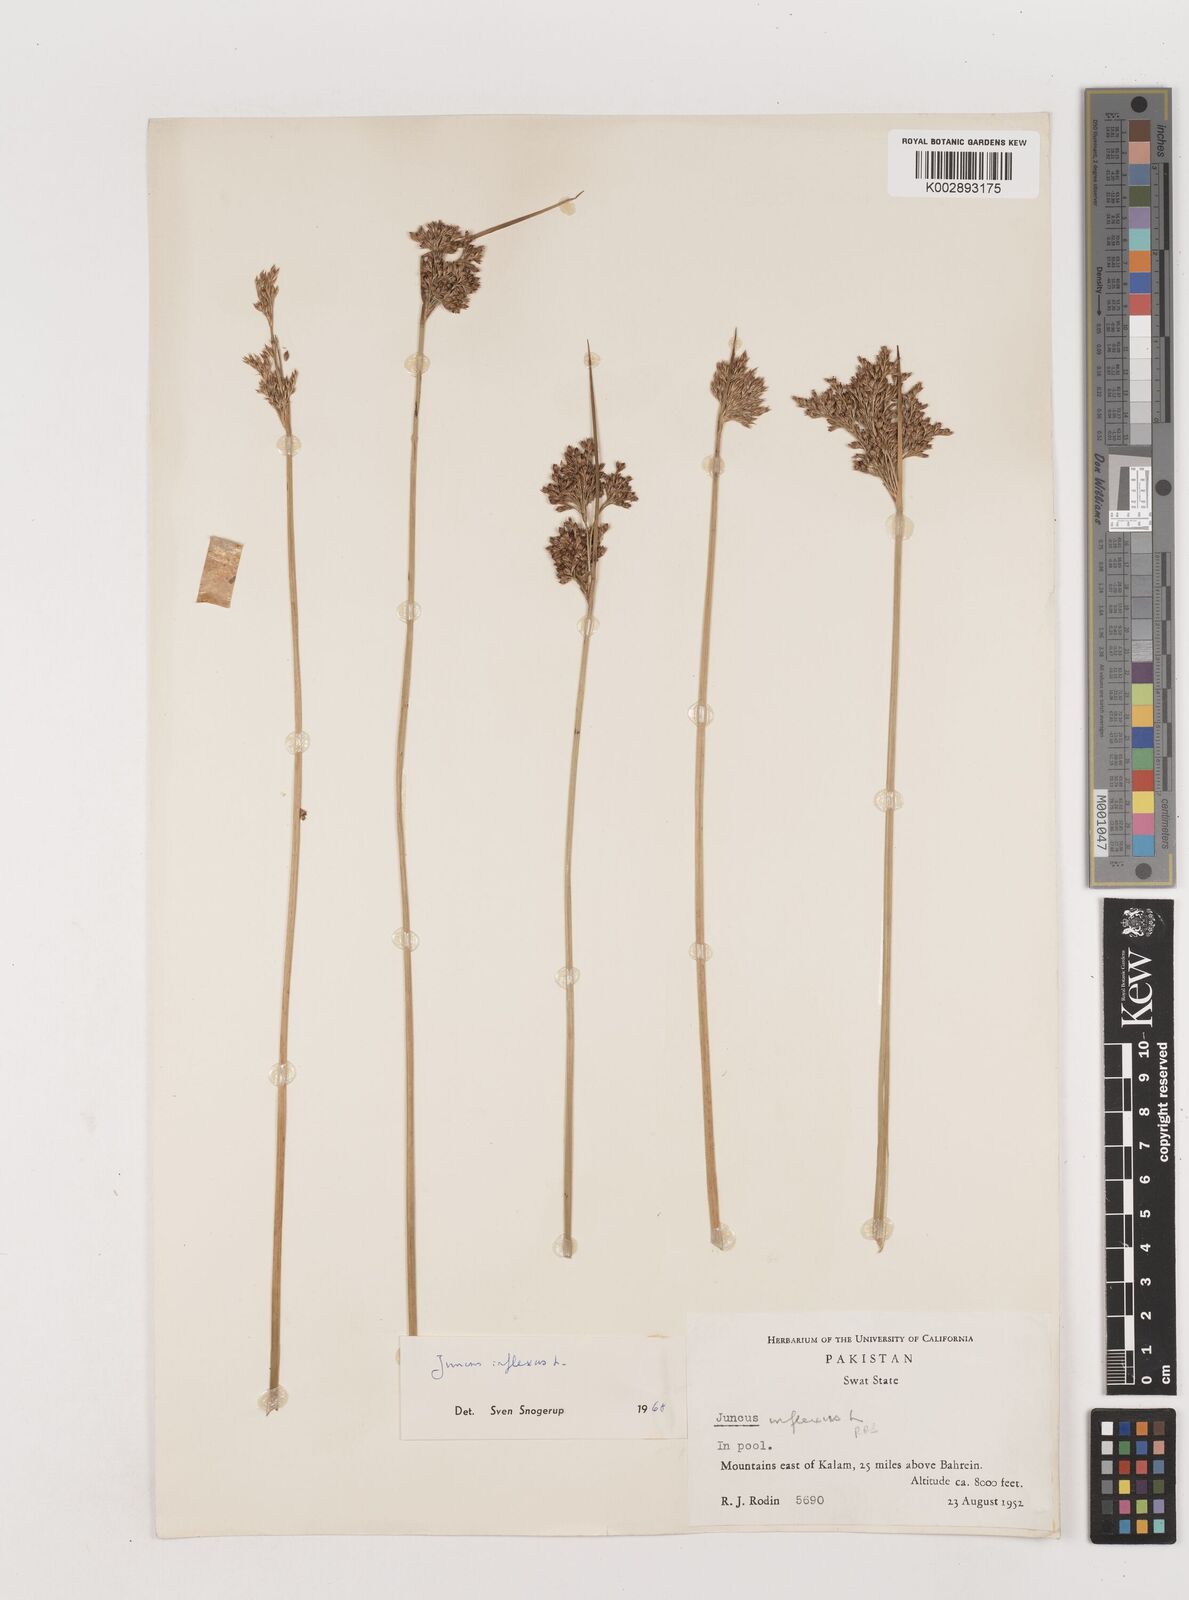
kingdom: Plantae
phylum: Tracheophyta
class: Liliopsida
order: Poales
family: Juncaceae
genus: Juncus
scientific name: Juncus inflexus
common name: Hard rush
